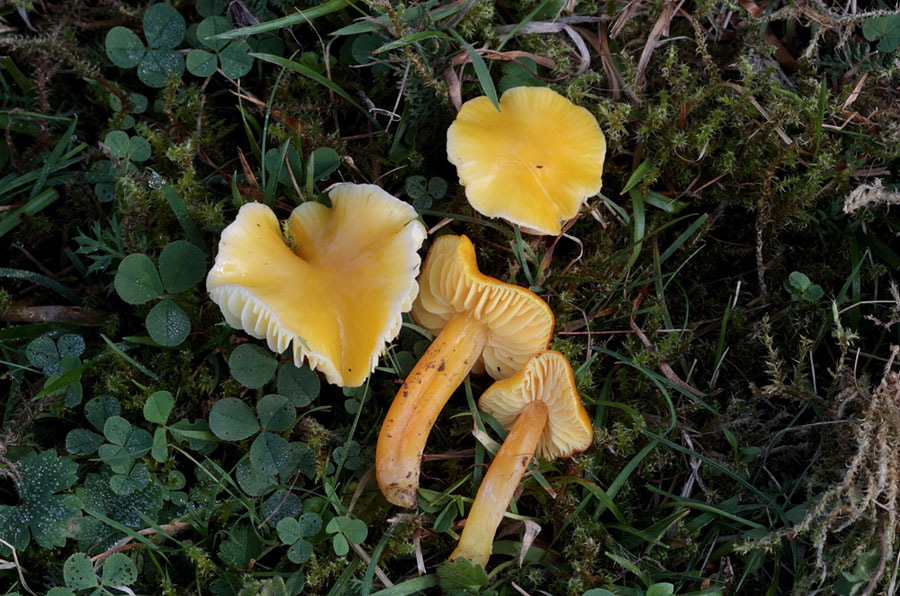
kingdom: Fungi
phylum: Basidiomycota
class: Agaricomycetes
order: Agaricales
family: Hygrophoraceae
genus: Hygrocybe
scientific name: Hygrocybe chlorophana
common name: gul vokshat
